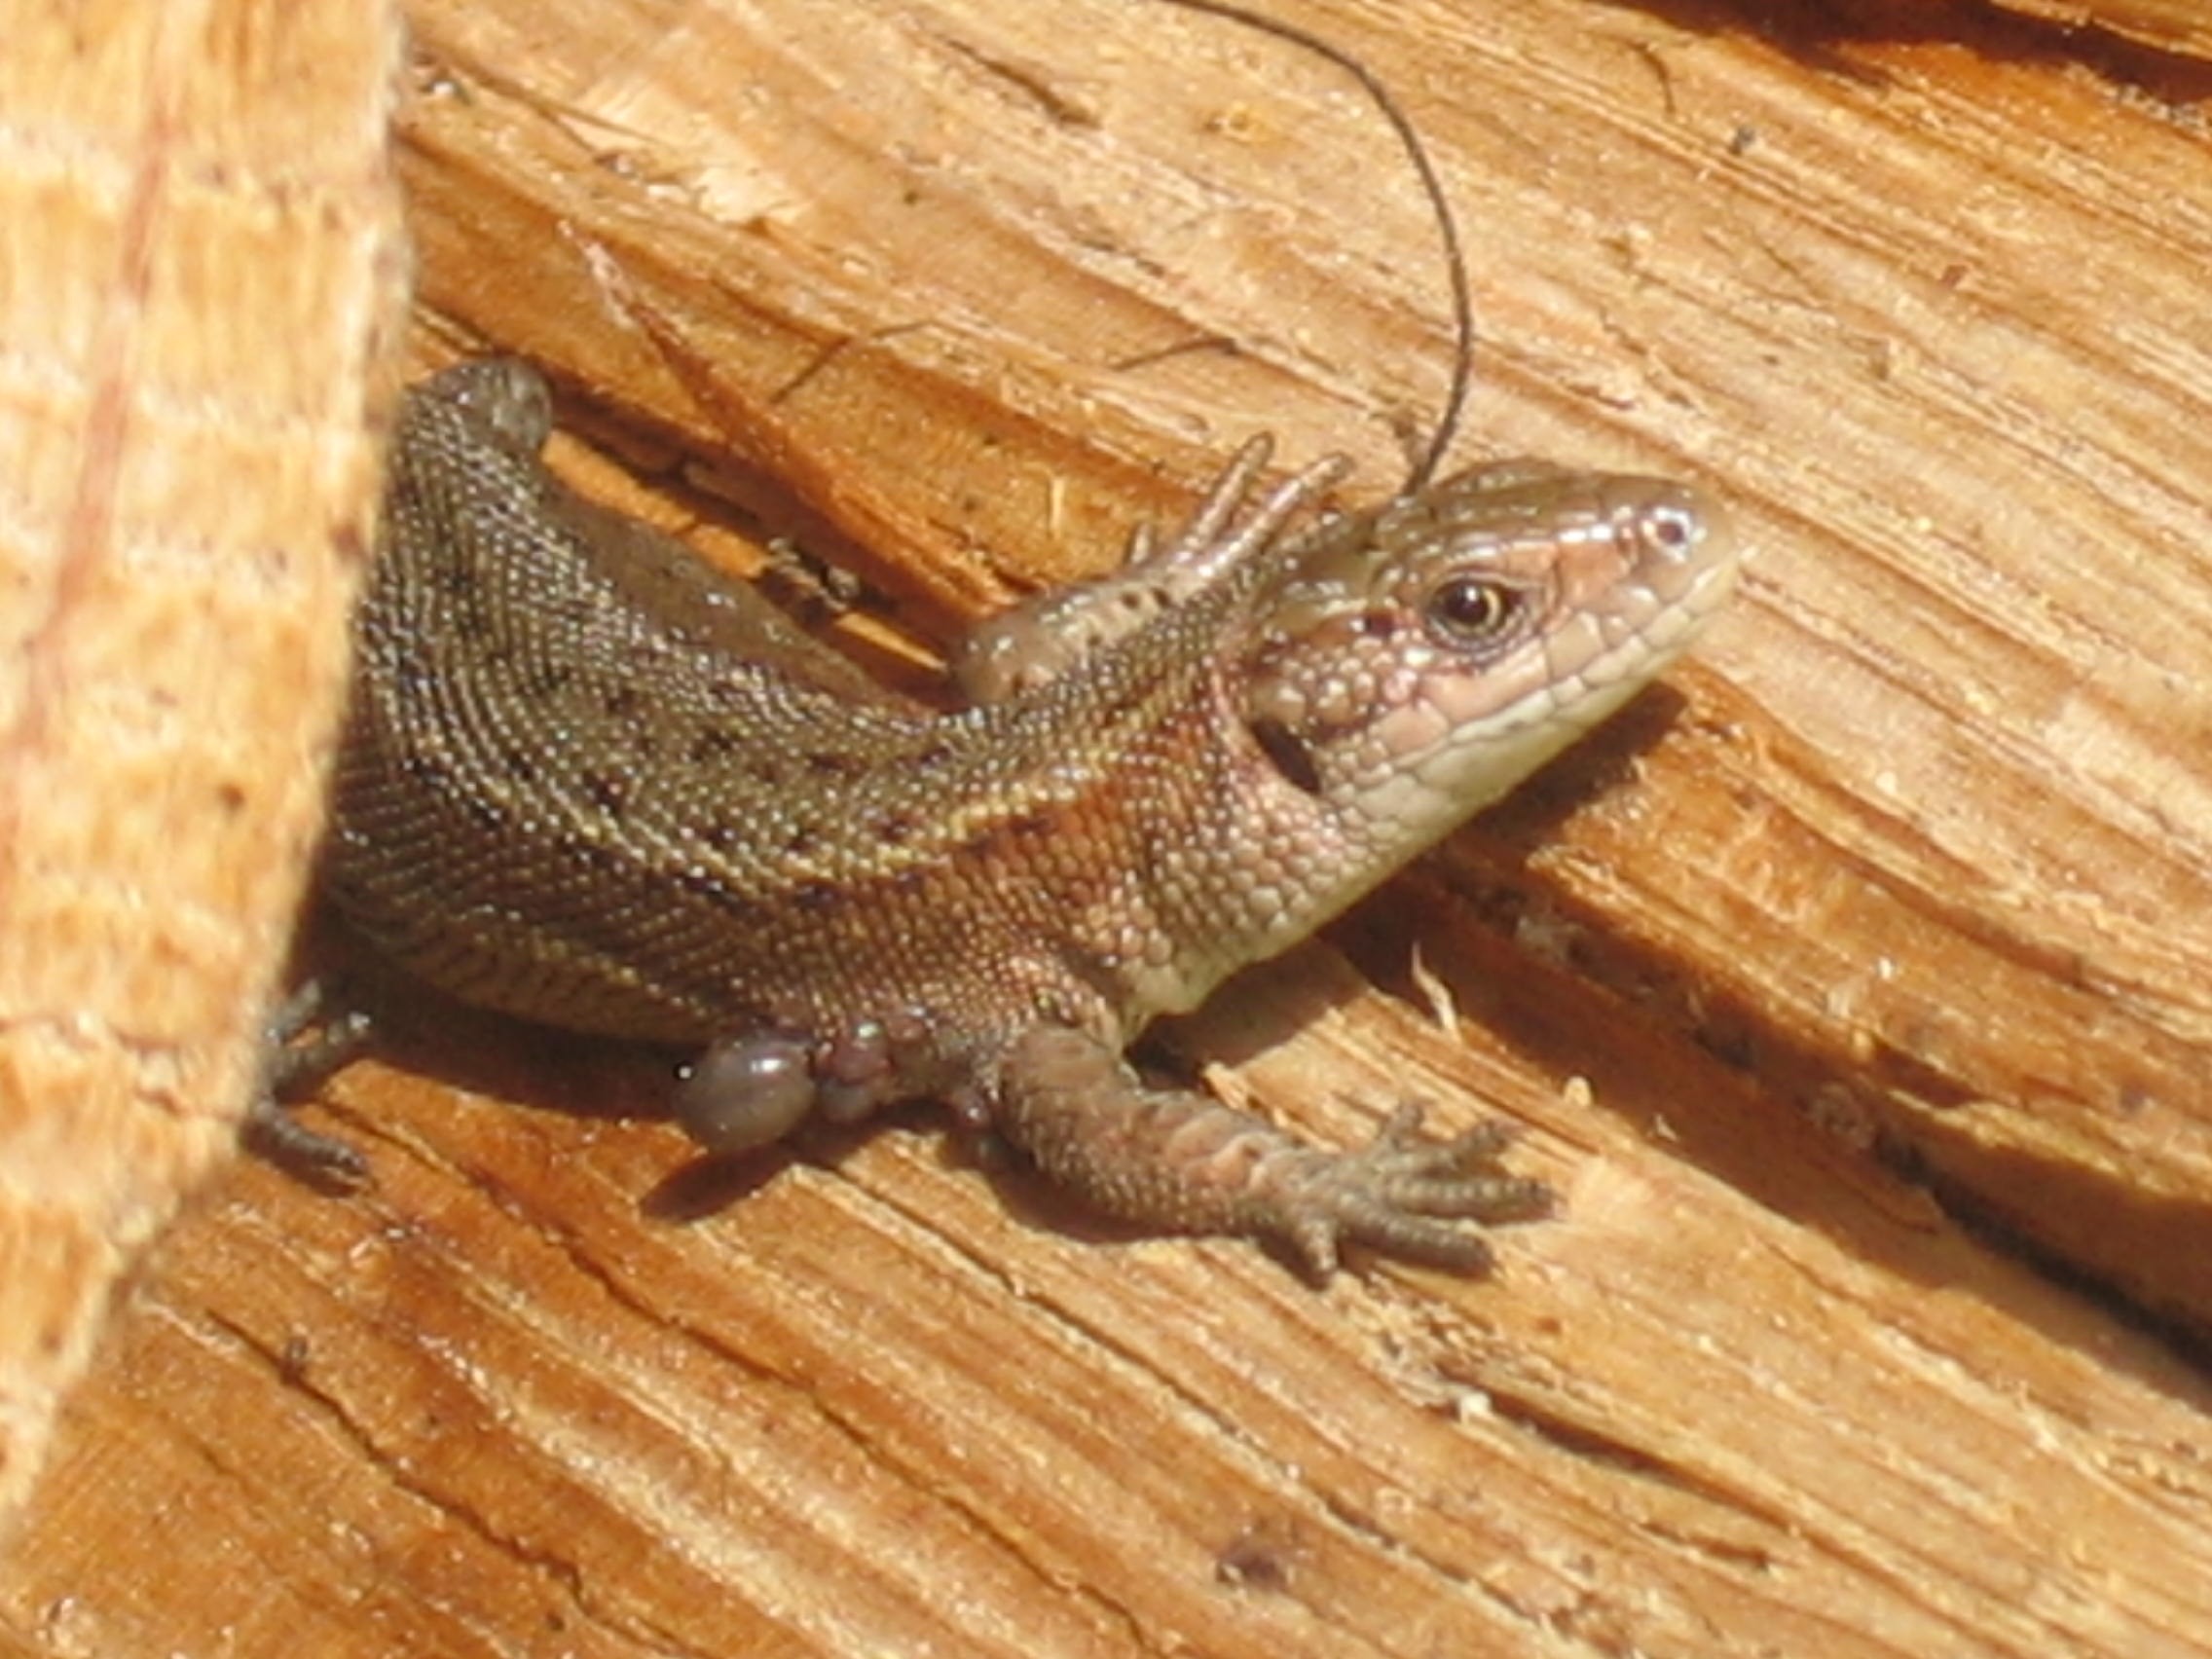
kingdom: Animalia
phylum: Chordata
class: Squamata
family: Lacertidae
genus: Zootoca
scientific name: Zootoca vivipara
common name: Skovfirben
